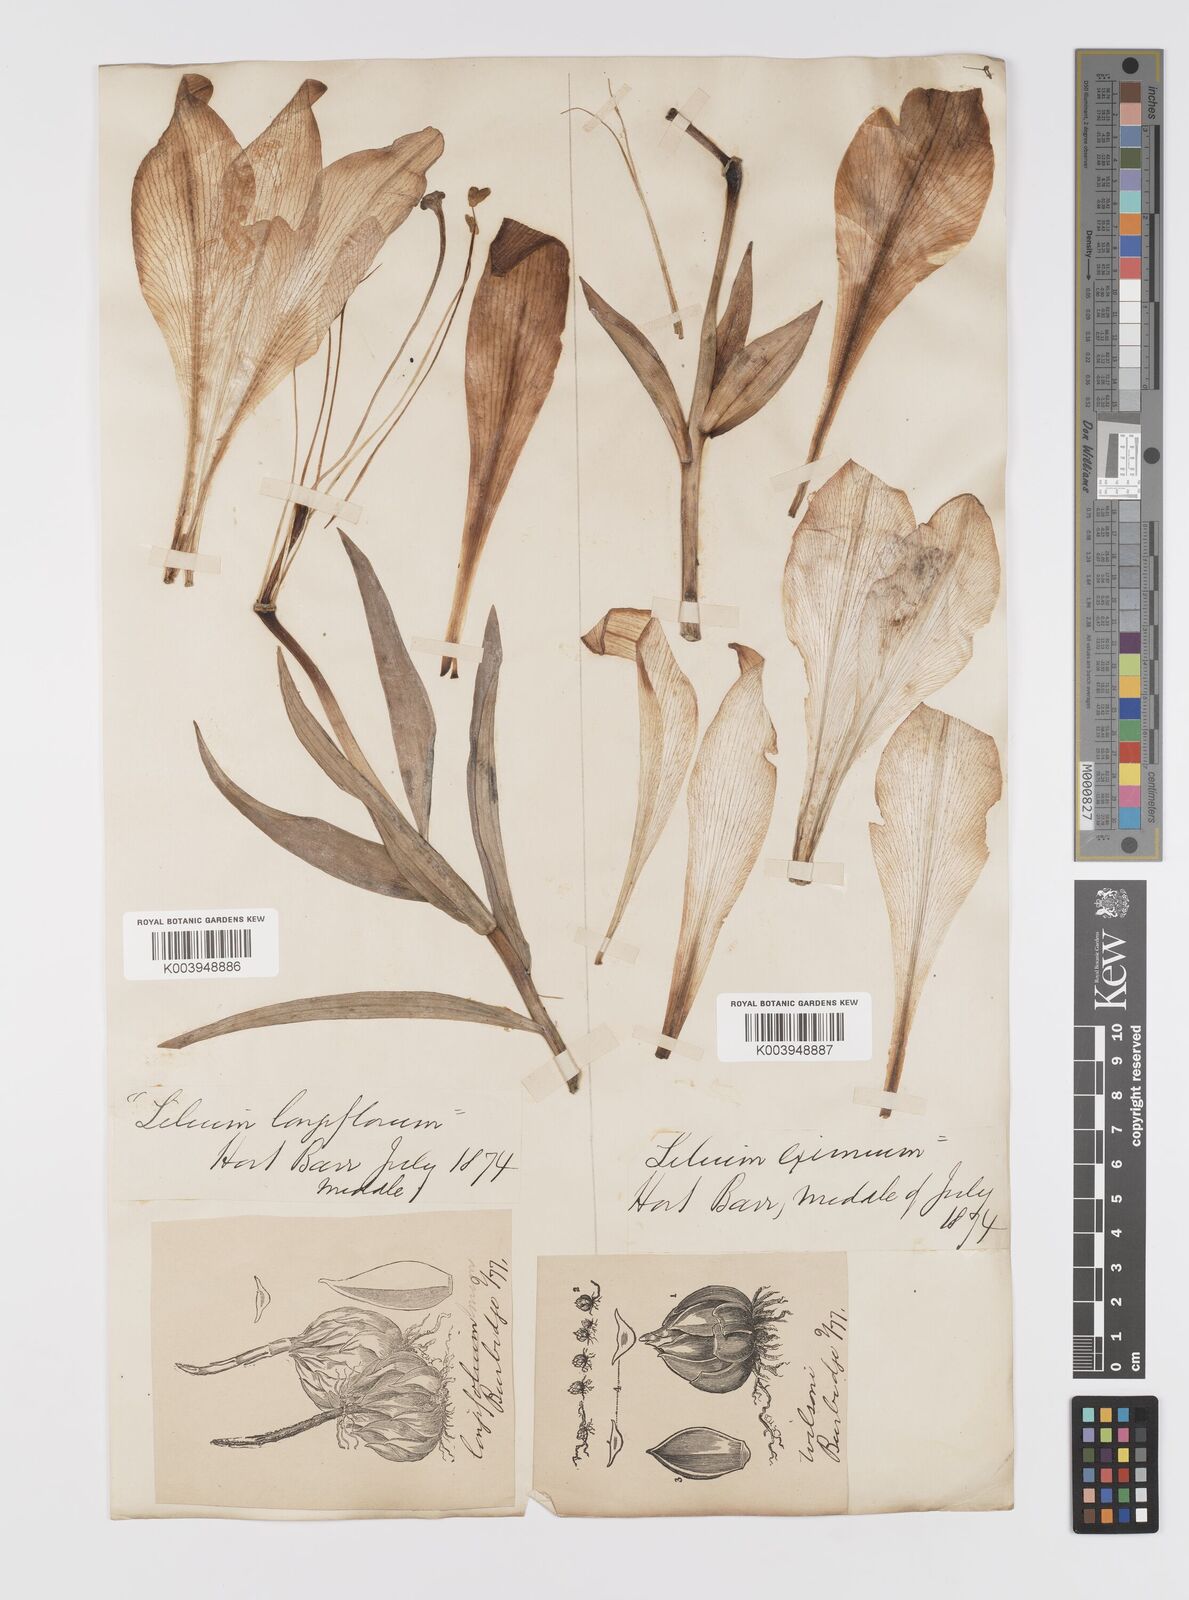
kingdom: Plantae
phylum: Tracheophyta
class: Liliopsida
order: Liliales
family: Liliaceae
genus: Lilium
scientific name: Lilium longiflorum
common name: Easter lily
